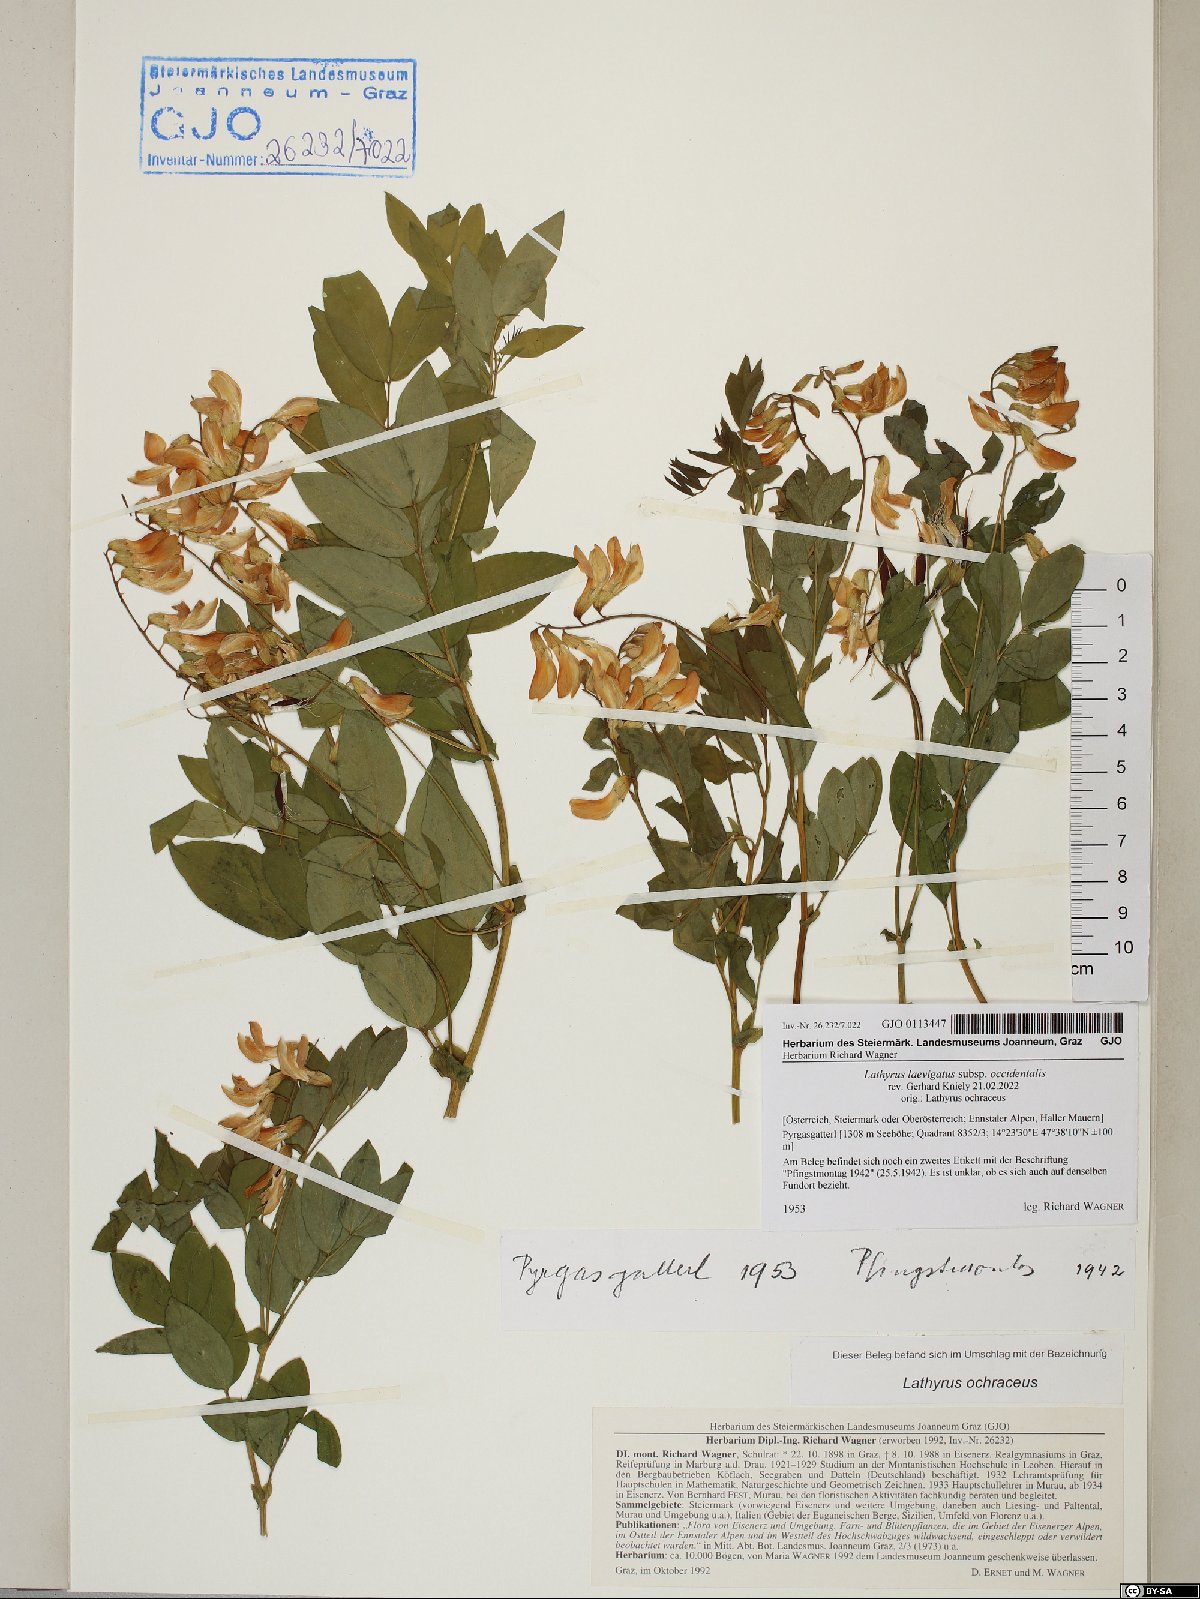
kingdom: Plantae
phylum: Tracheophyta
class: Magnoliopsida
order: Fabales
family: Fabaceae
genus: Lathyrus
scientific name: Lathyrus laevigatus
